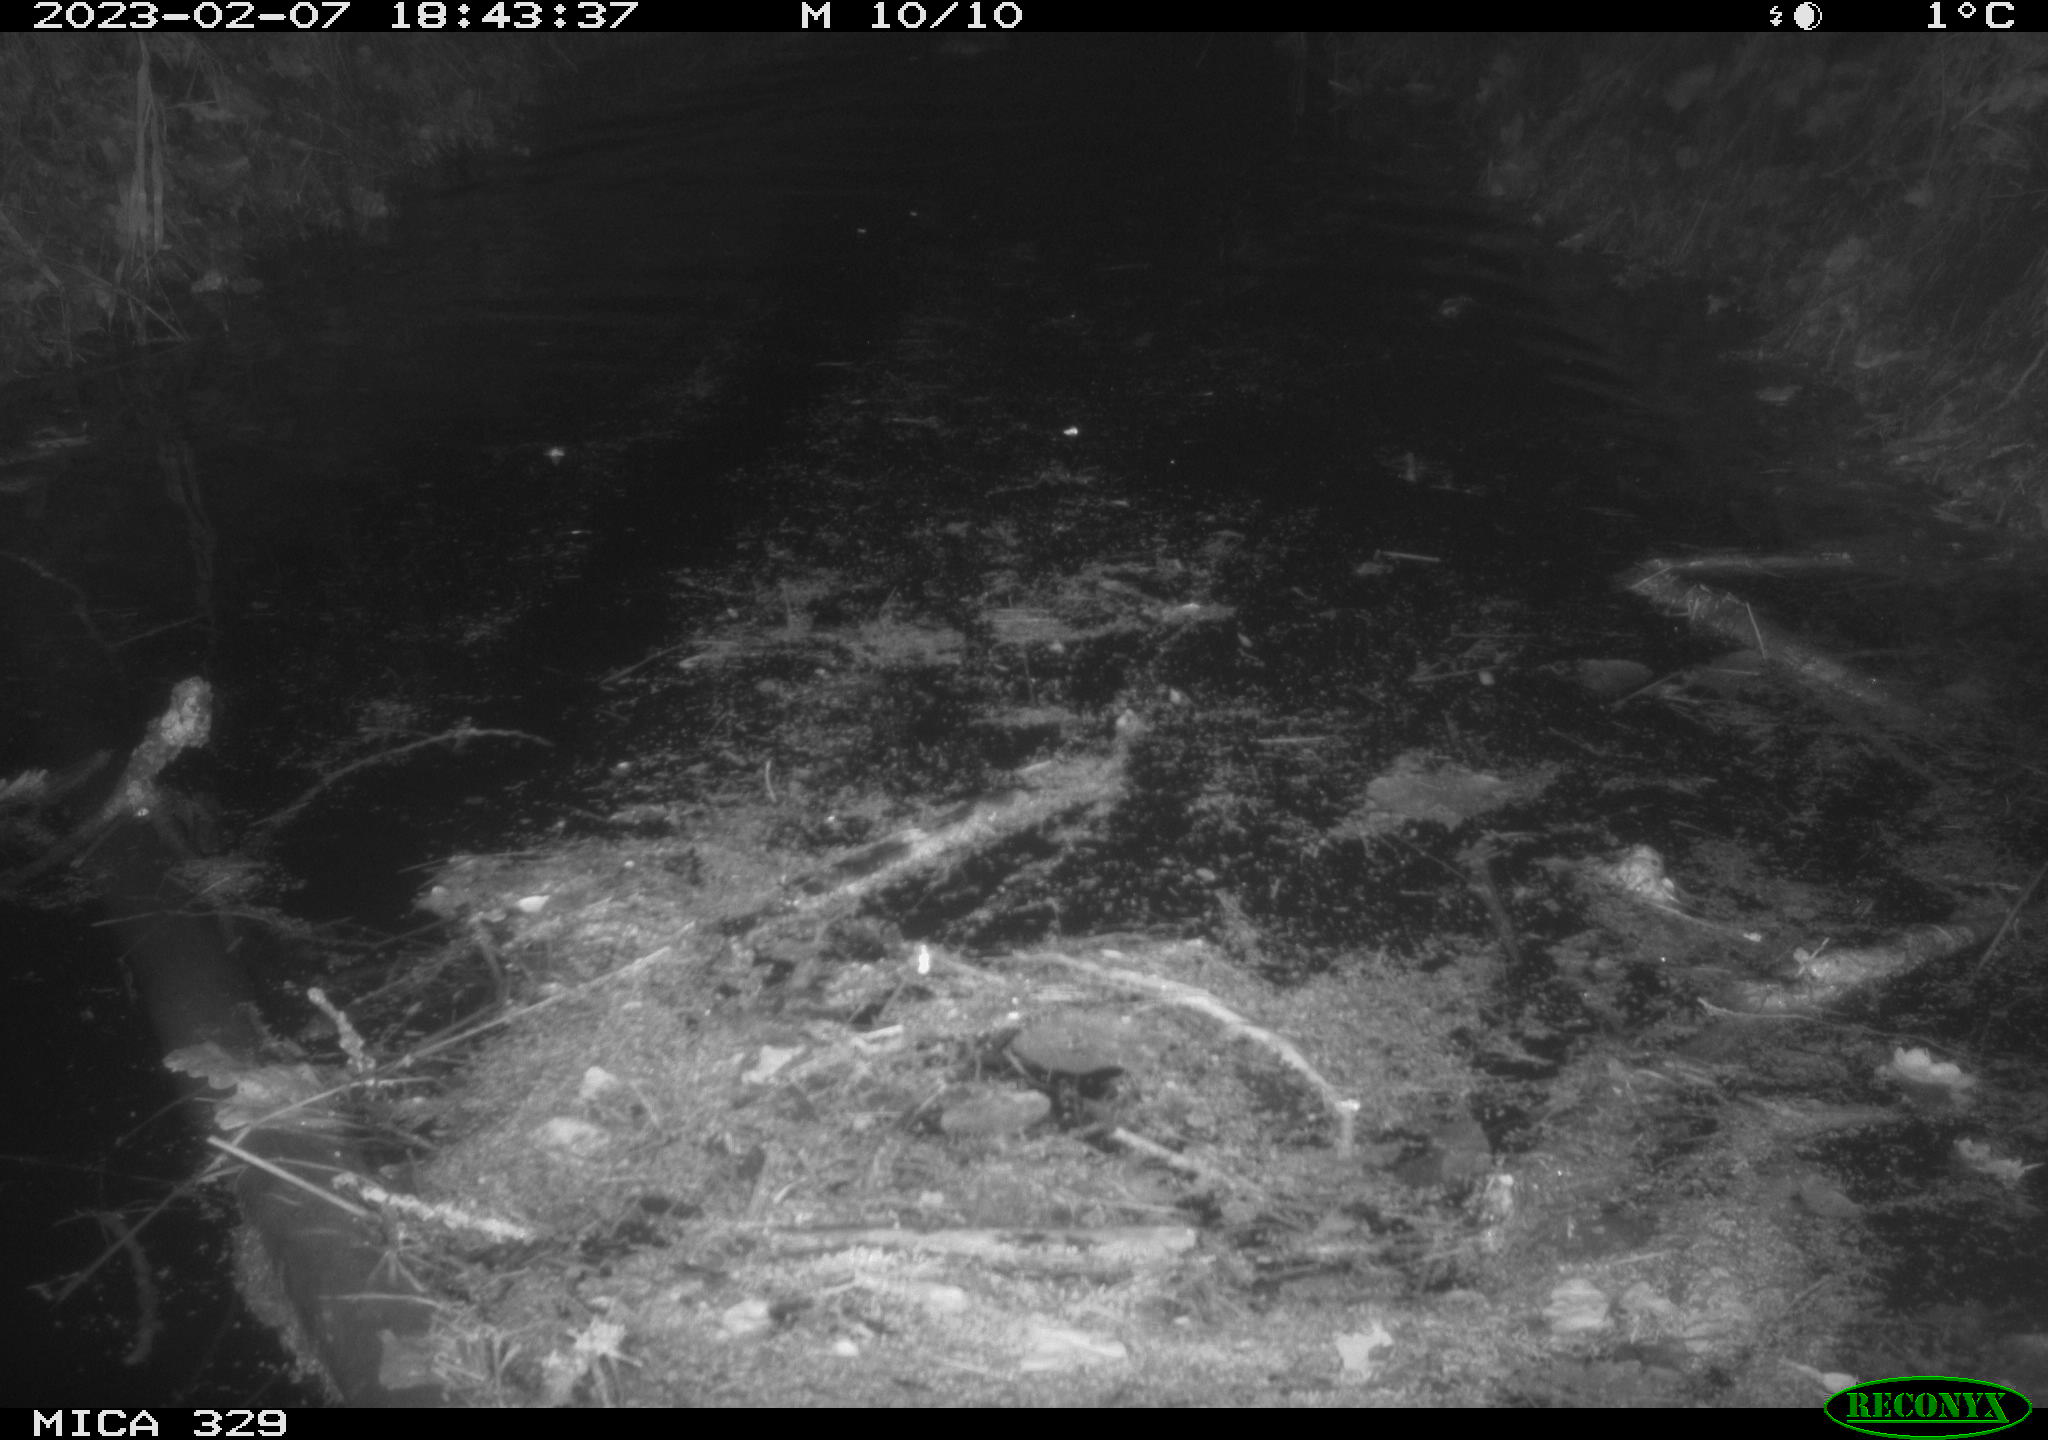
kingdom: Animalia
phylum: Chordata
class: Mammalia
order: Rodentia
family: Cricetidae
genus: Ondatra
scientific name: Ondatra zibethicus
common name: Muskrat
